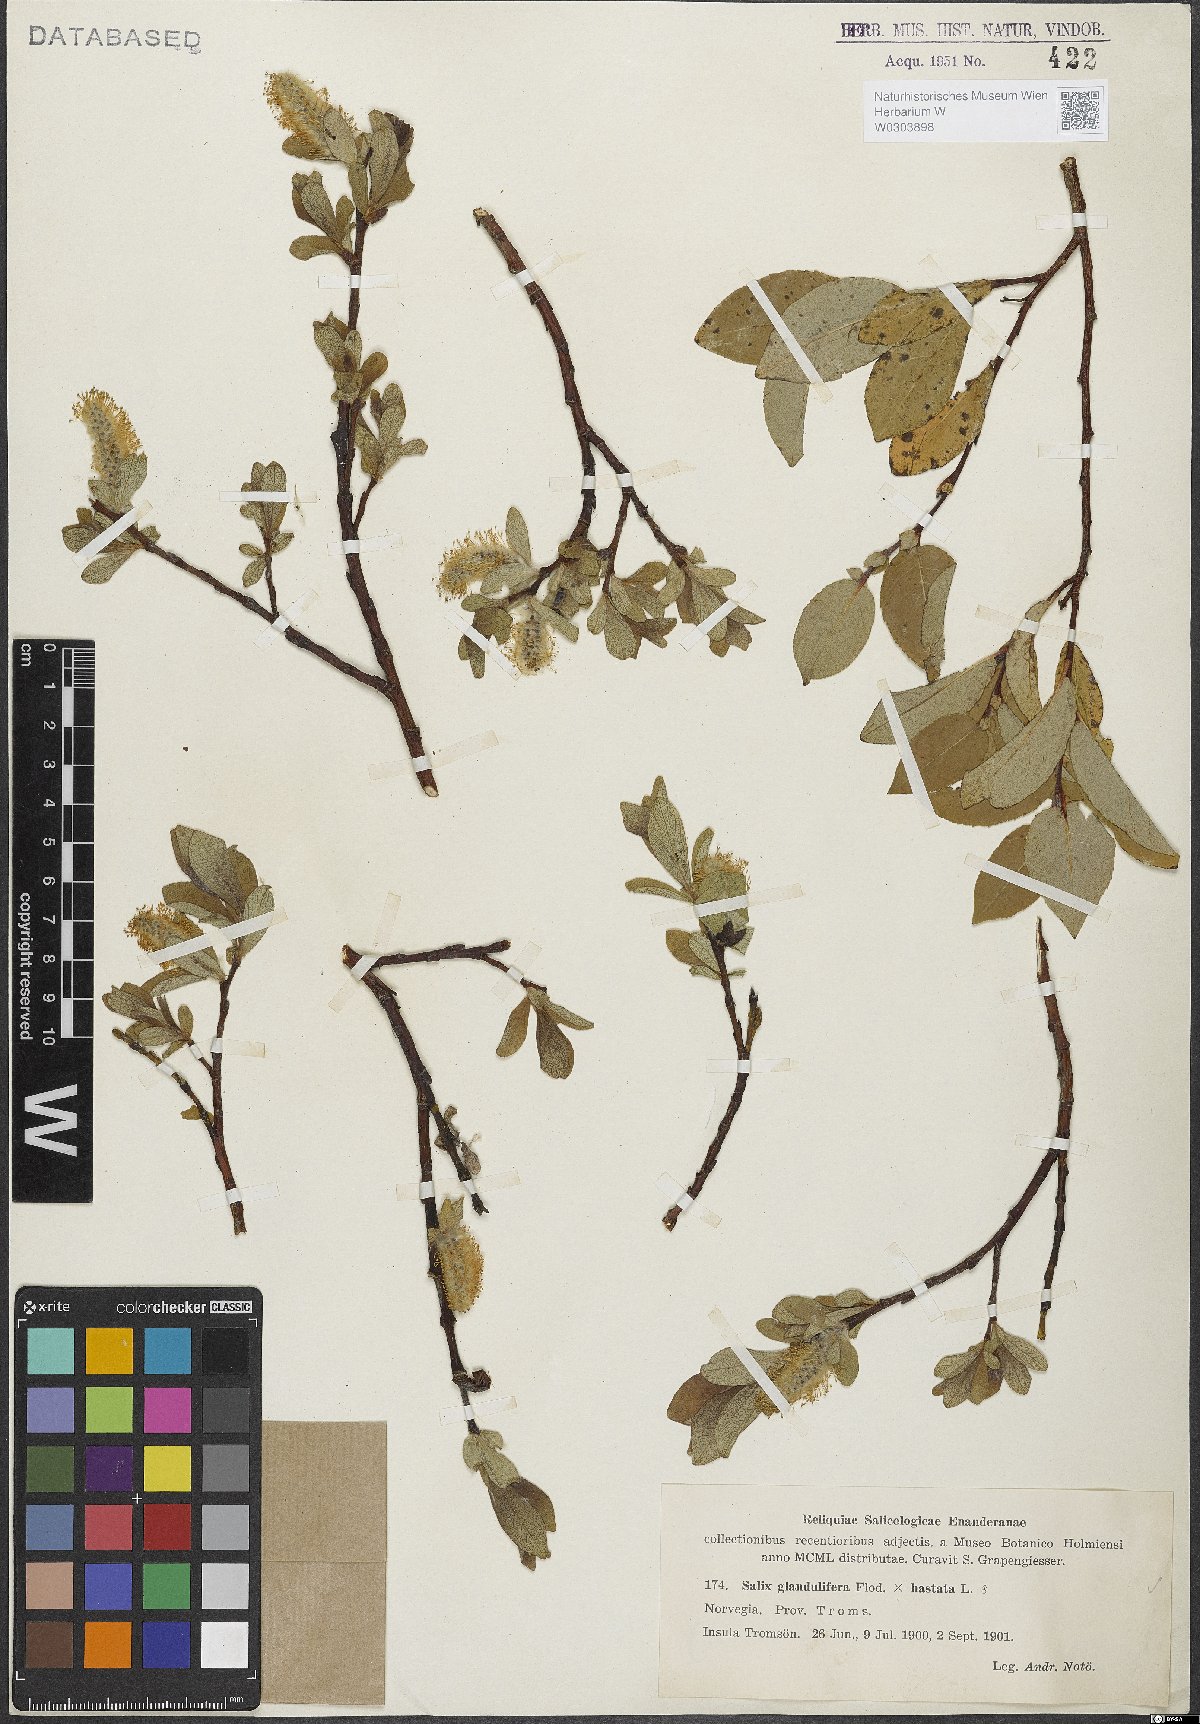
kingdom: Plantae
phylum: Tracheophyta
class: Magnoliopsida
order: Malpighiales
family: Salicaceae
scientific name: Salicaceae
